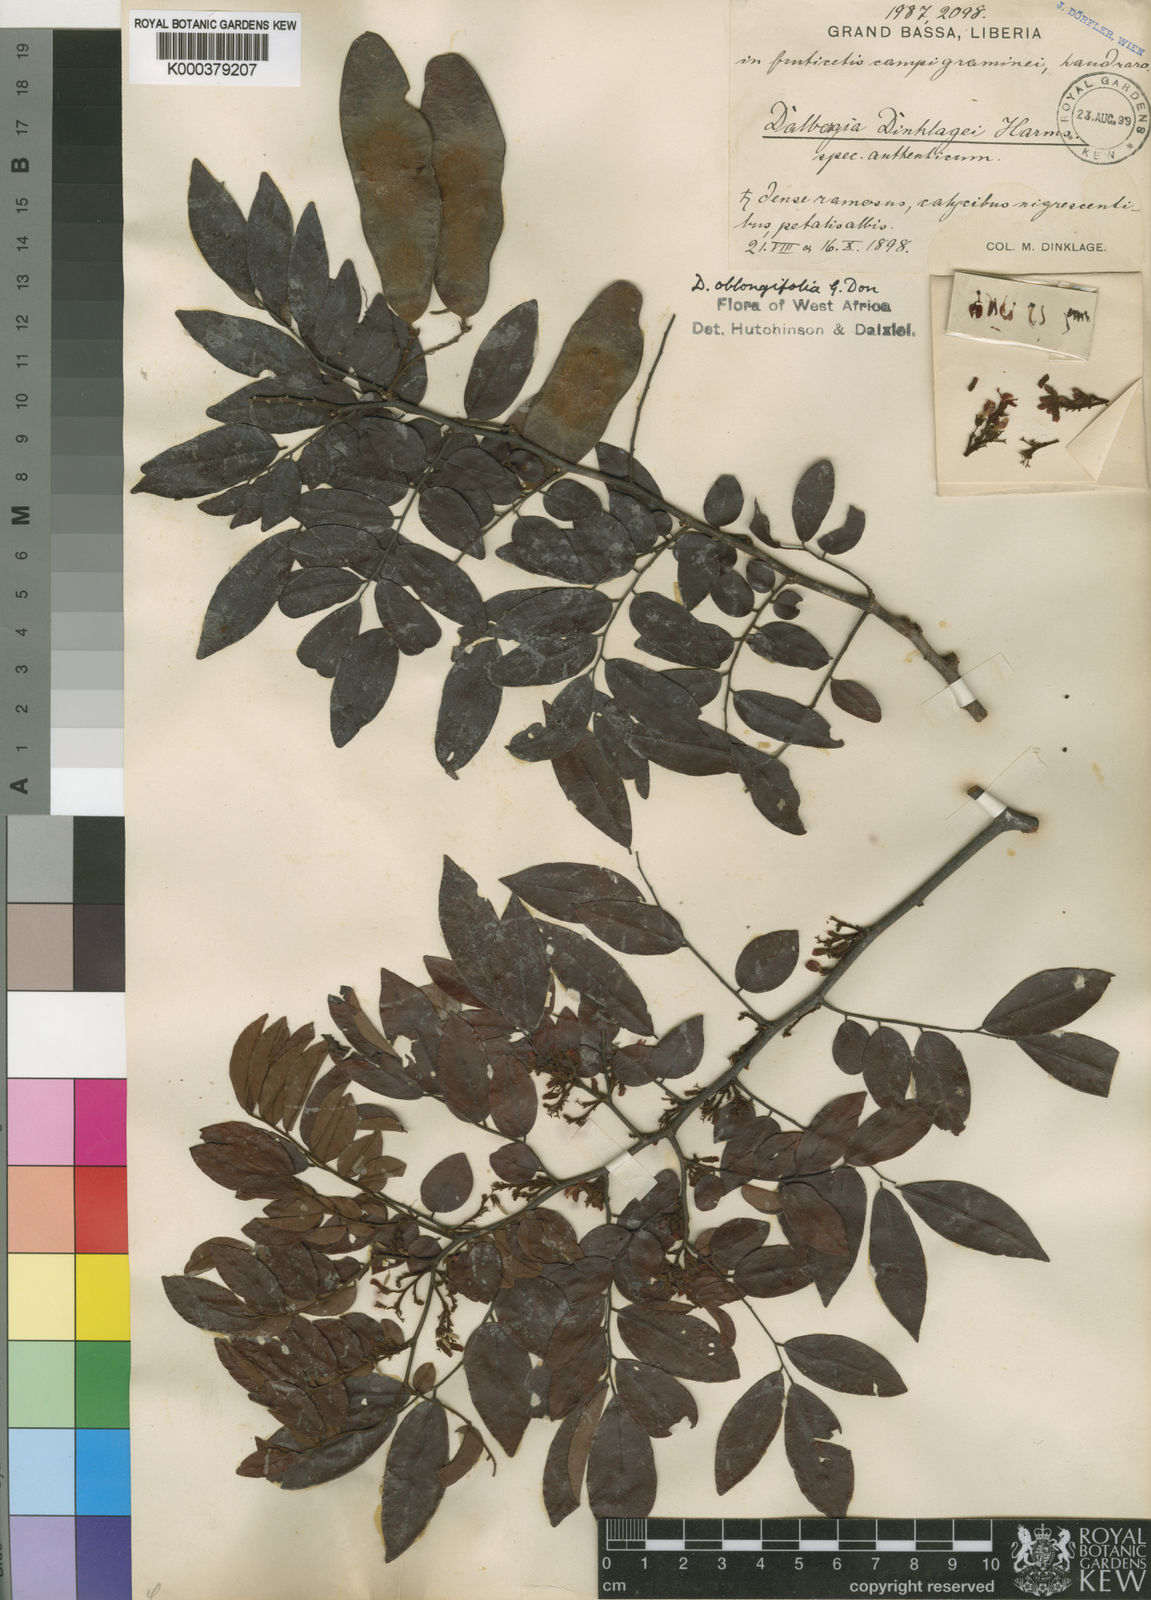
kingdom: Plantae
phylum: Tracheophyta
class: Magnoliopsida
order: Fabales
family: Fabaceae
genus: Dalbergia
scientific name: Dalbergia oblongifolia
